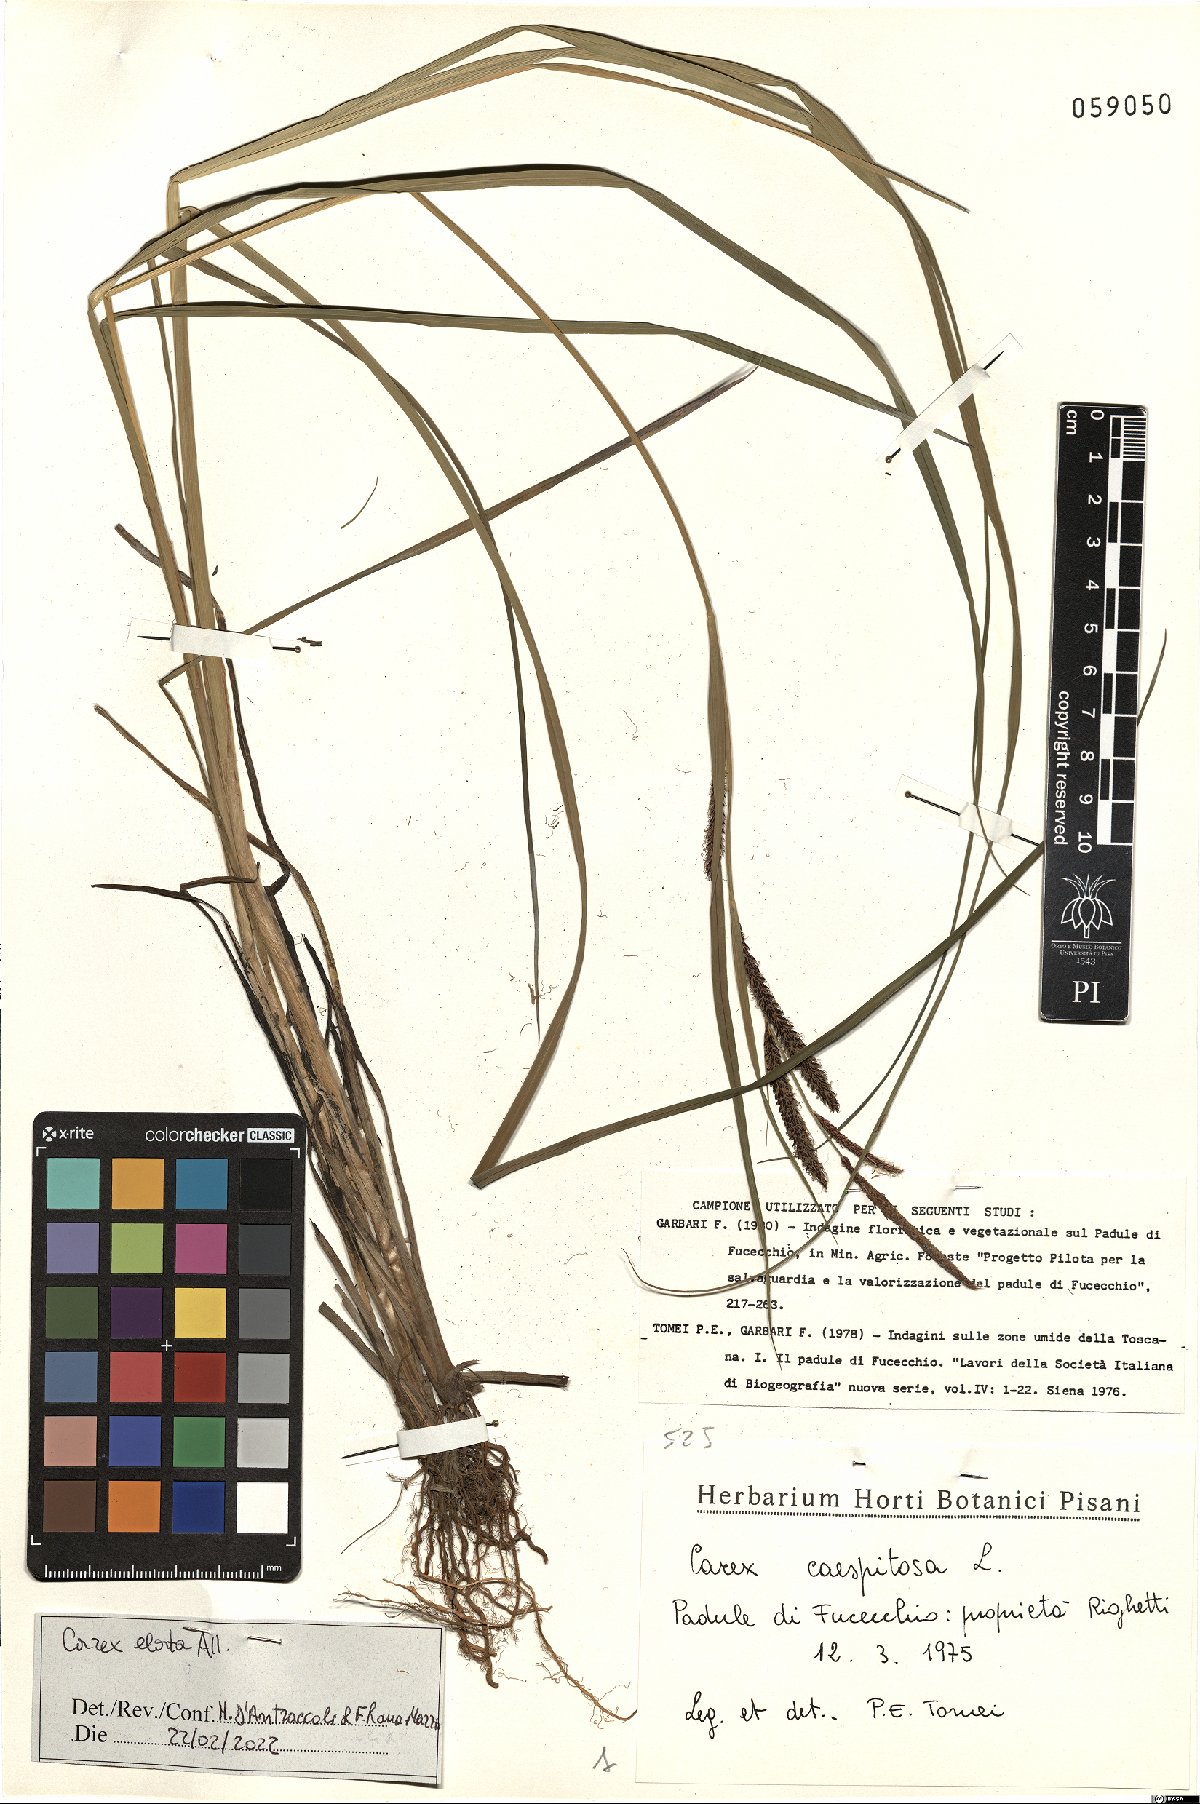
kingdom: Plantae
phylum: Tracheophyta
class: Liliopsida
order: Poales
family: Cyperaceae
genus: Carex
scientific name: Carex elata
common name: Tufted sedge
